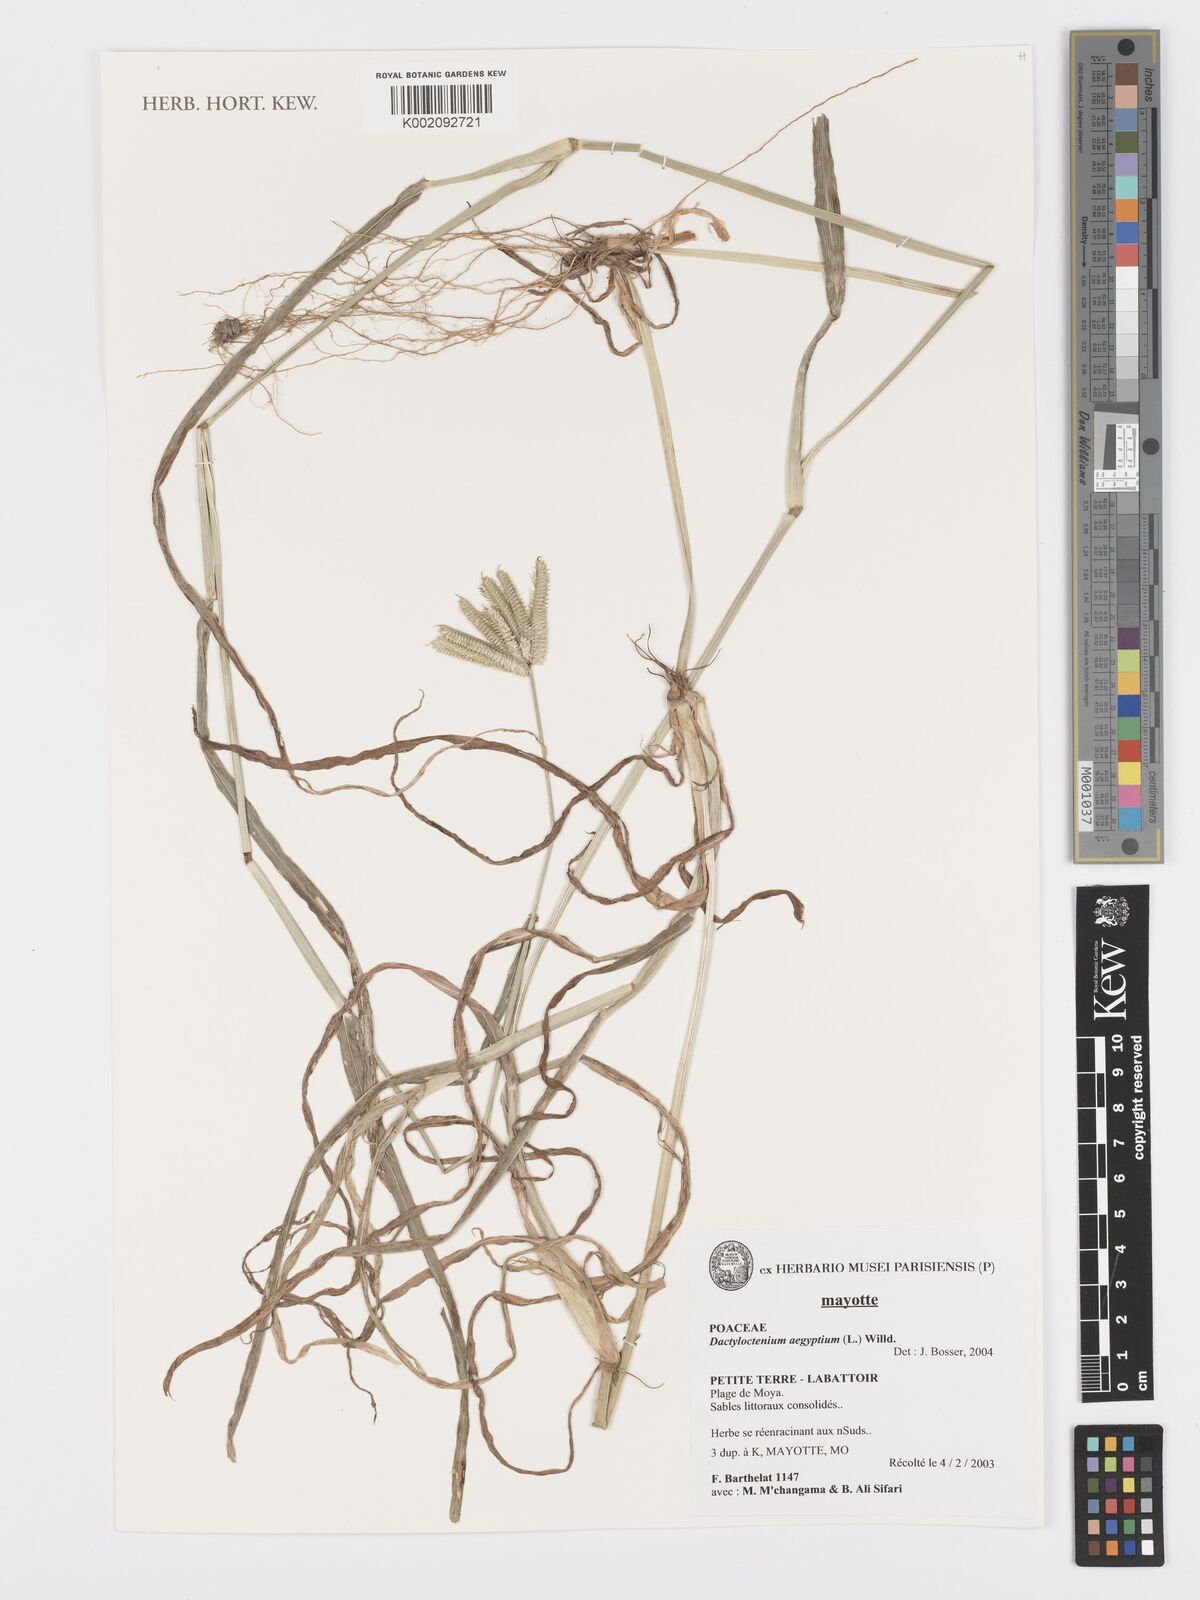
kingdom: Plantae
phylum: Tracheophyta
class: Liliopsida
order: Poales
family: Poaceae
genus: Dactyloctenium
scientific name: Dactyloctenium aegyptium
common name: Egyptian grass
